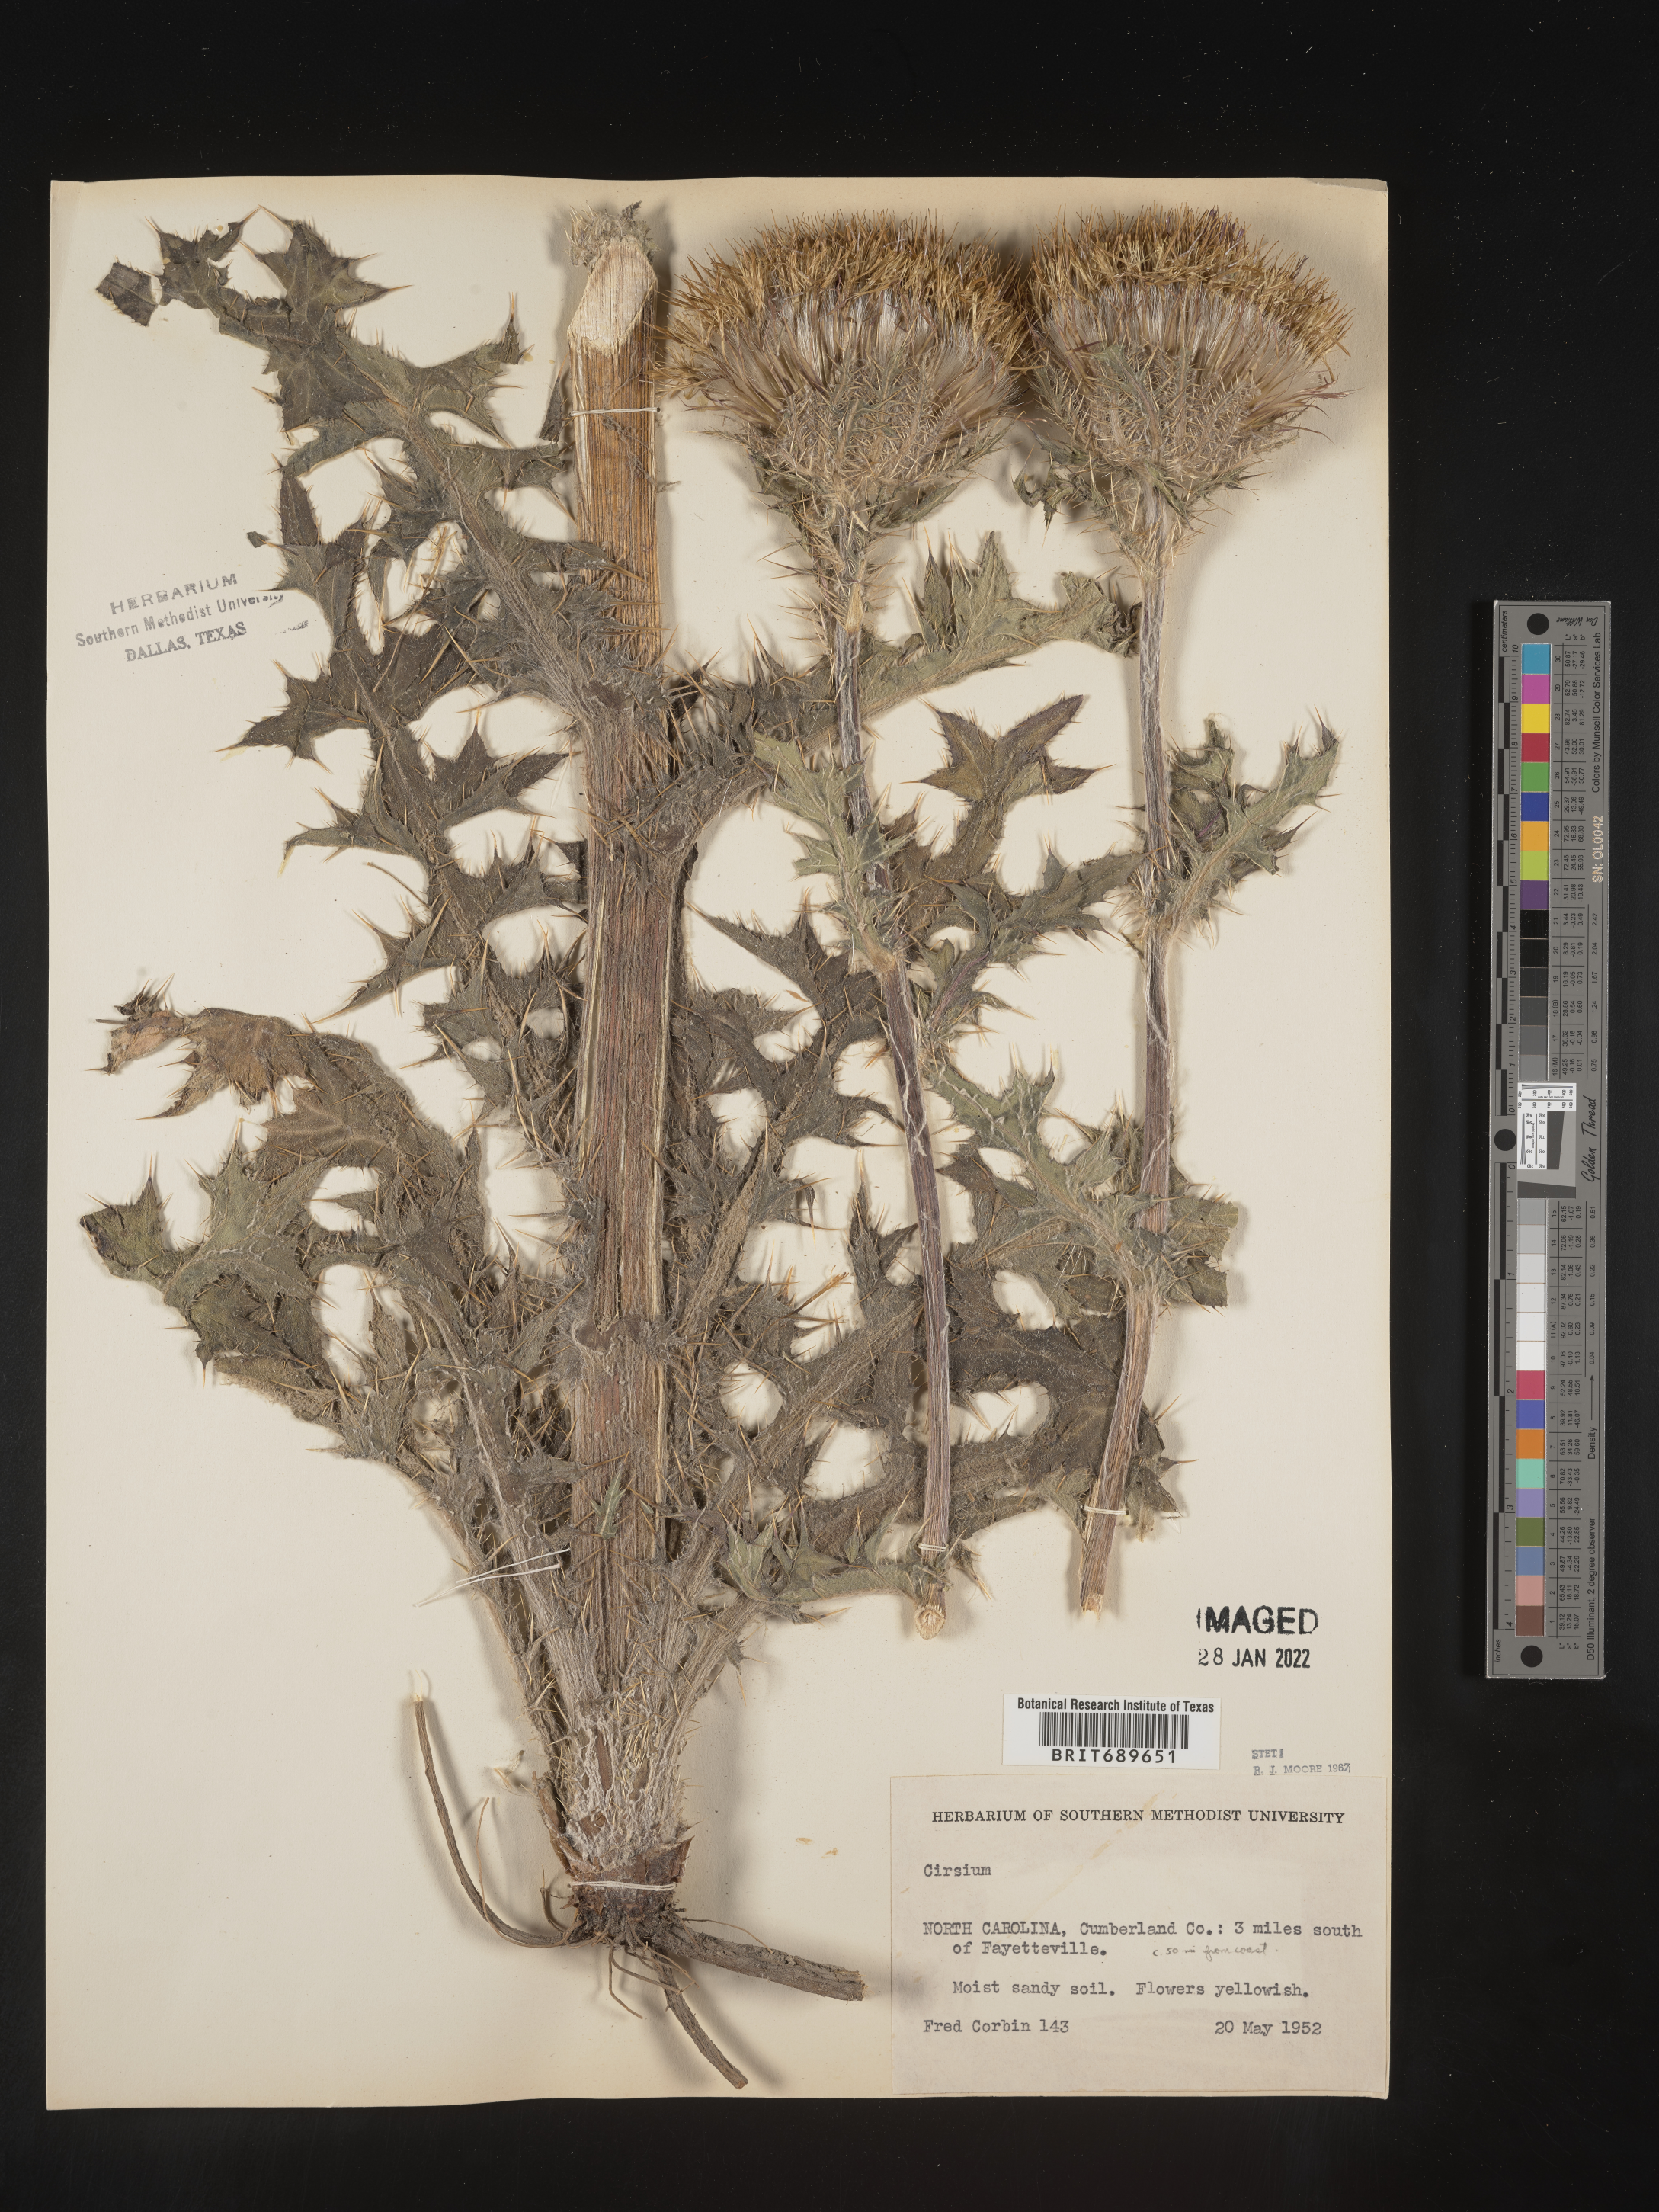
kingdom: Plantae
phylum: Tracheophyta
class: Magnoliopsida
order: Asterales
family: Asteraceae
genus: Cirsium
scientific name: Cirsium horridulum
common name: Bristly thistle
